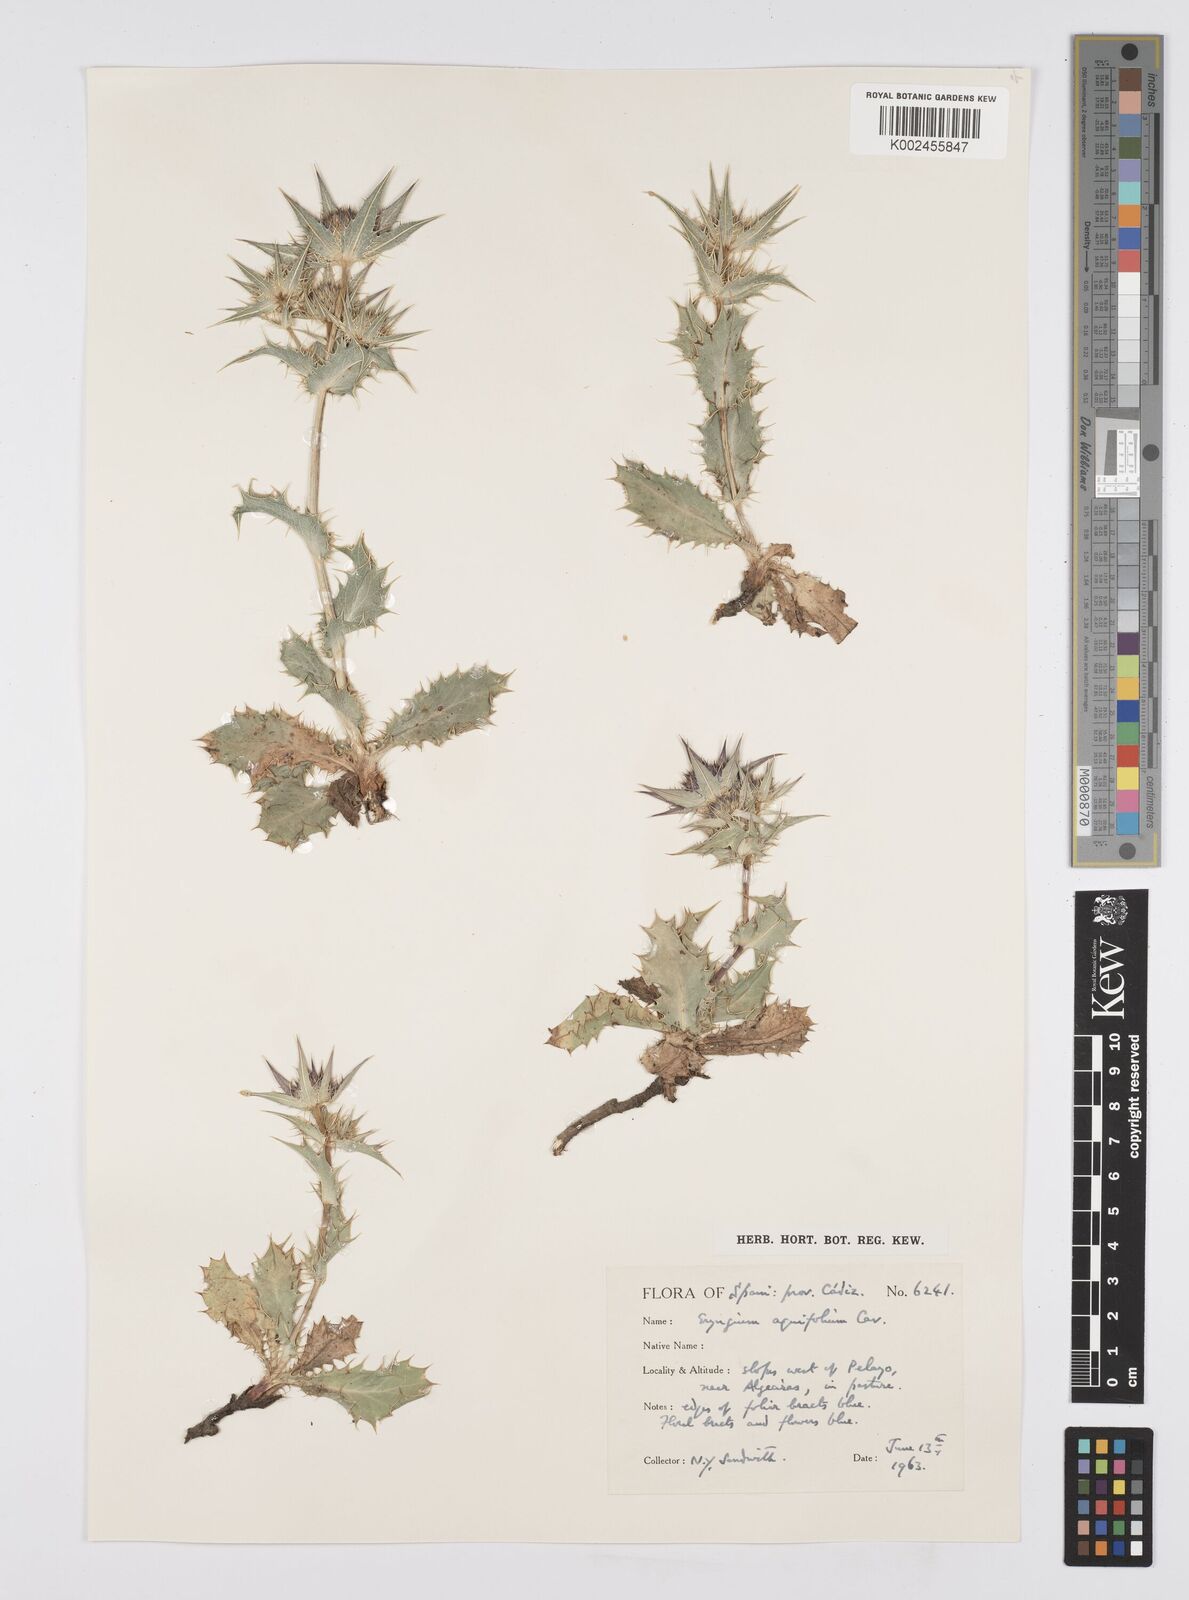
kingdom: Plantae
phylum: Tracheophyta
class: Magnoliopsida
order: Apiales
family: Apiaceae
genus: Eryngium
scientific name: Eryngium aquifolium
